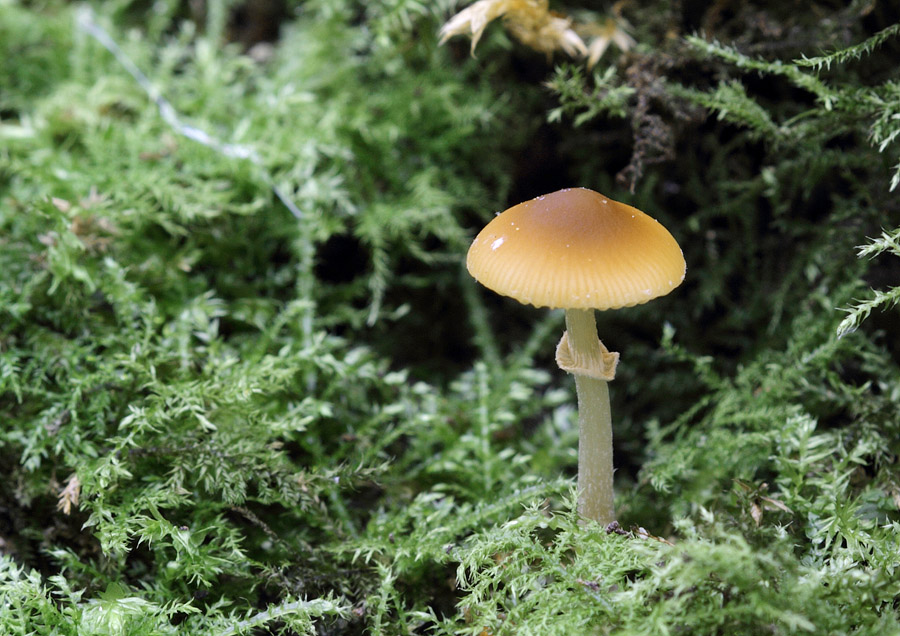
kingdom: Fungi
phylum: Basidiomycota
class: Agaricomycetes
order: Agaricales
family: Bolbitiaceae
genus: Conocybe
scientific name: Conocybe arrhenii
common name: ring-dansehat
